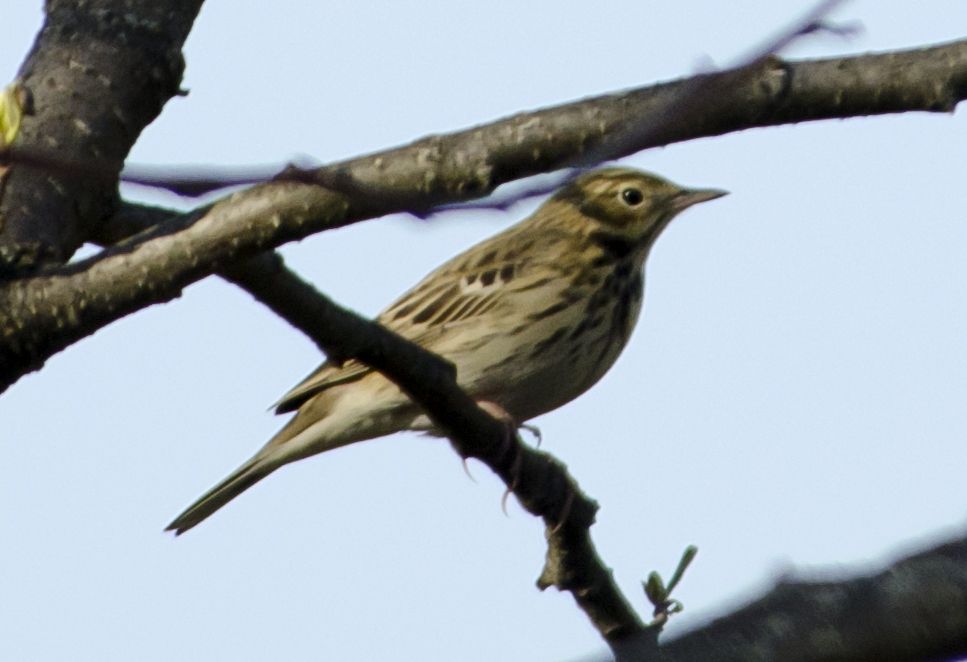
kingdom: Animalia
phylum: Chordata
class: Aves
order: Passeriformes
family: Motacillidae
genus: Anthus
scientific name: Anthus trivialis
